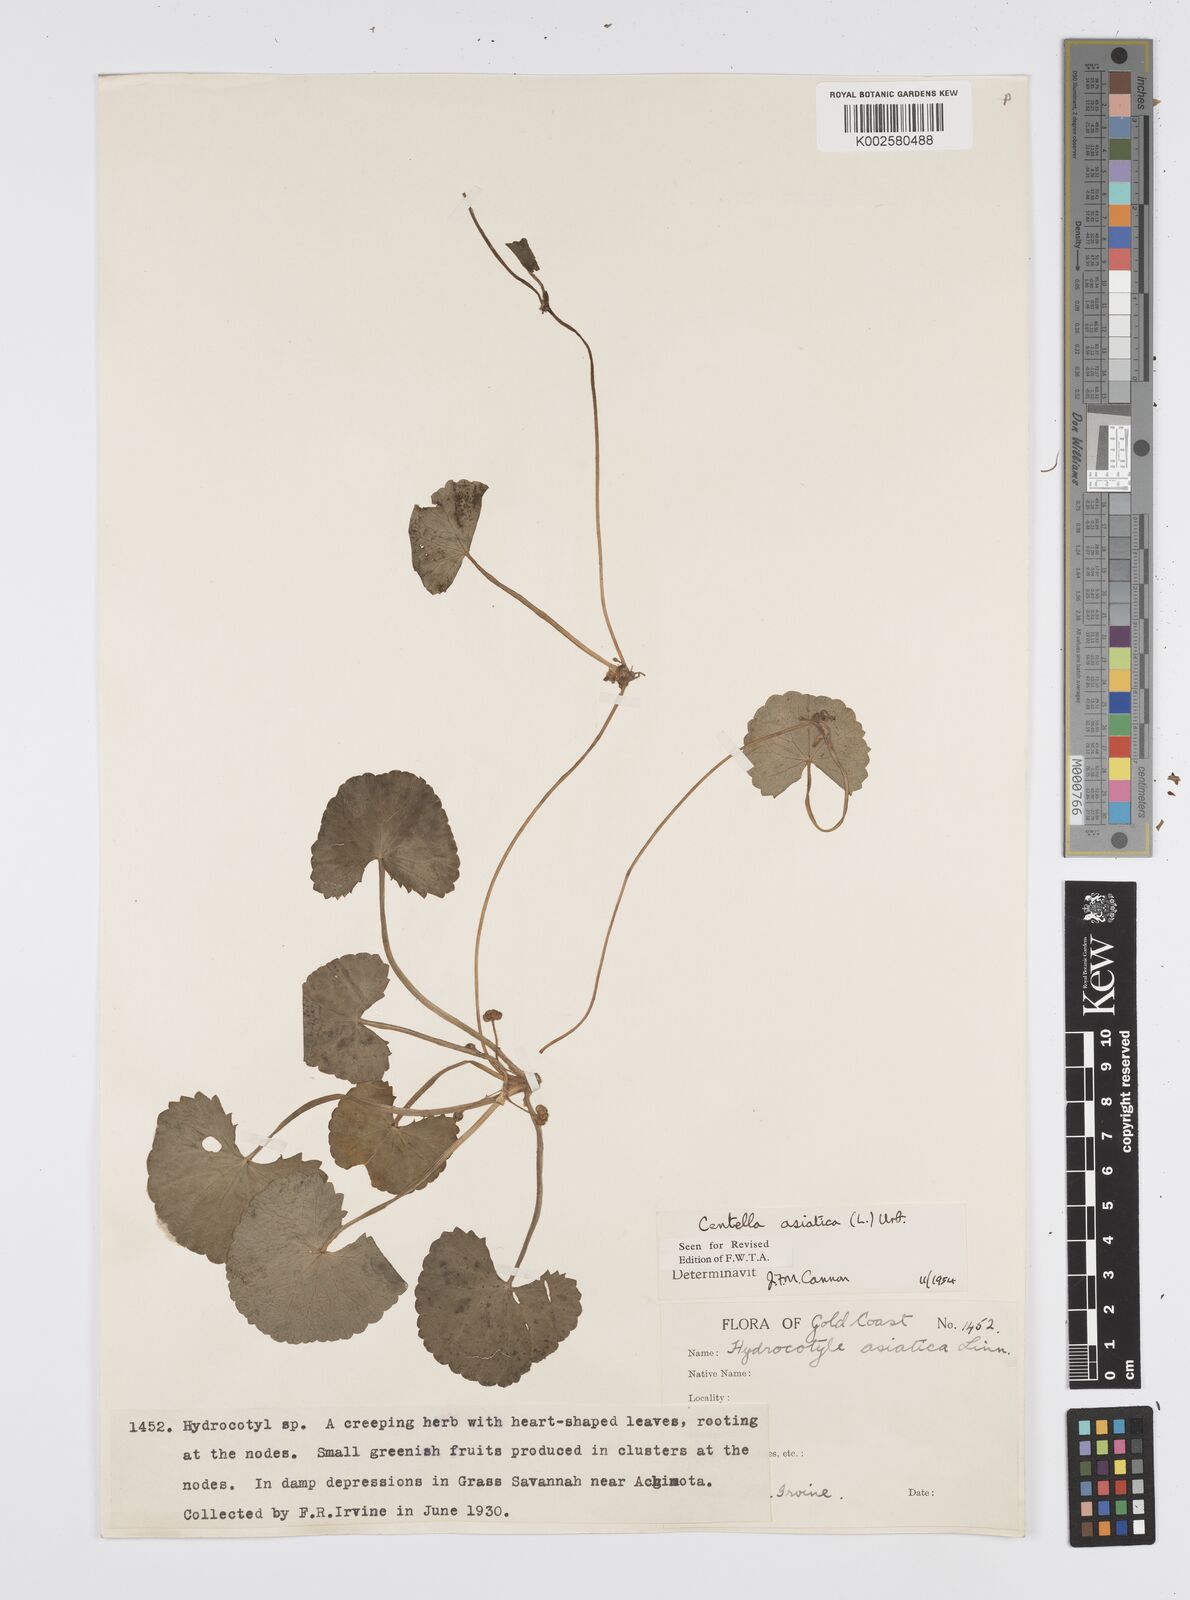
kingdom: Plantae
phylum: Tracheophyta
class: Magnoliopsida
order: Apiales
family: Apiaceae
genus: Centella
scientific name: Centella asiatica
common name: Spadeleaf
